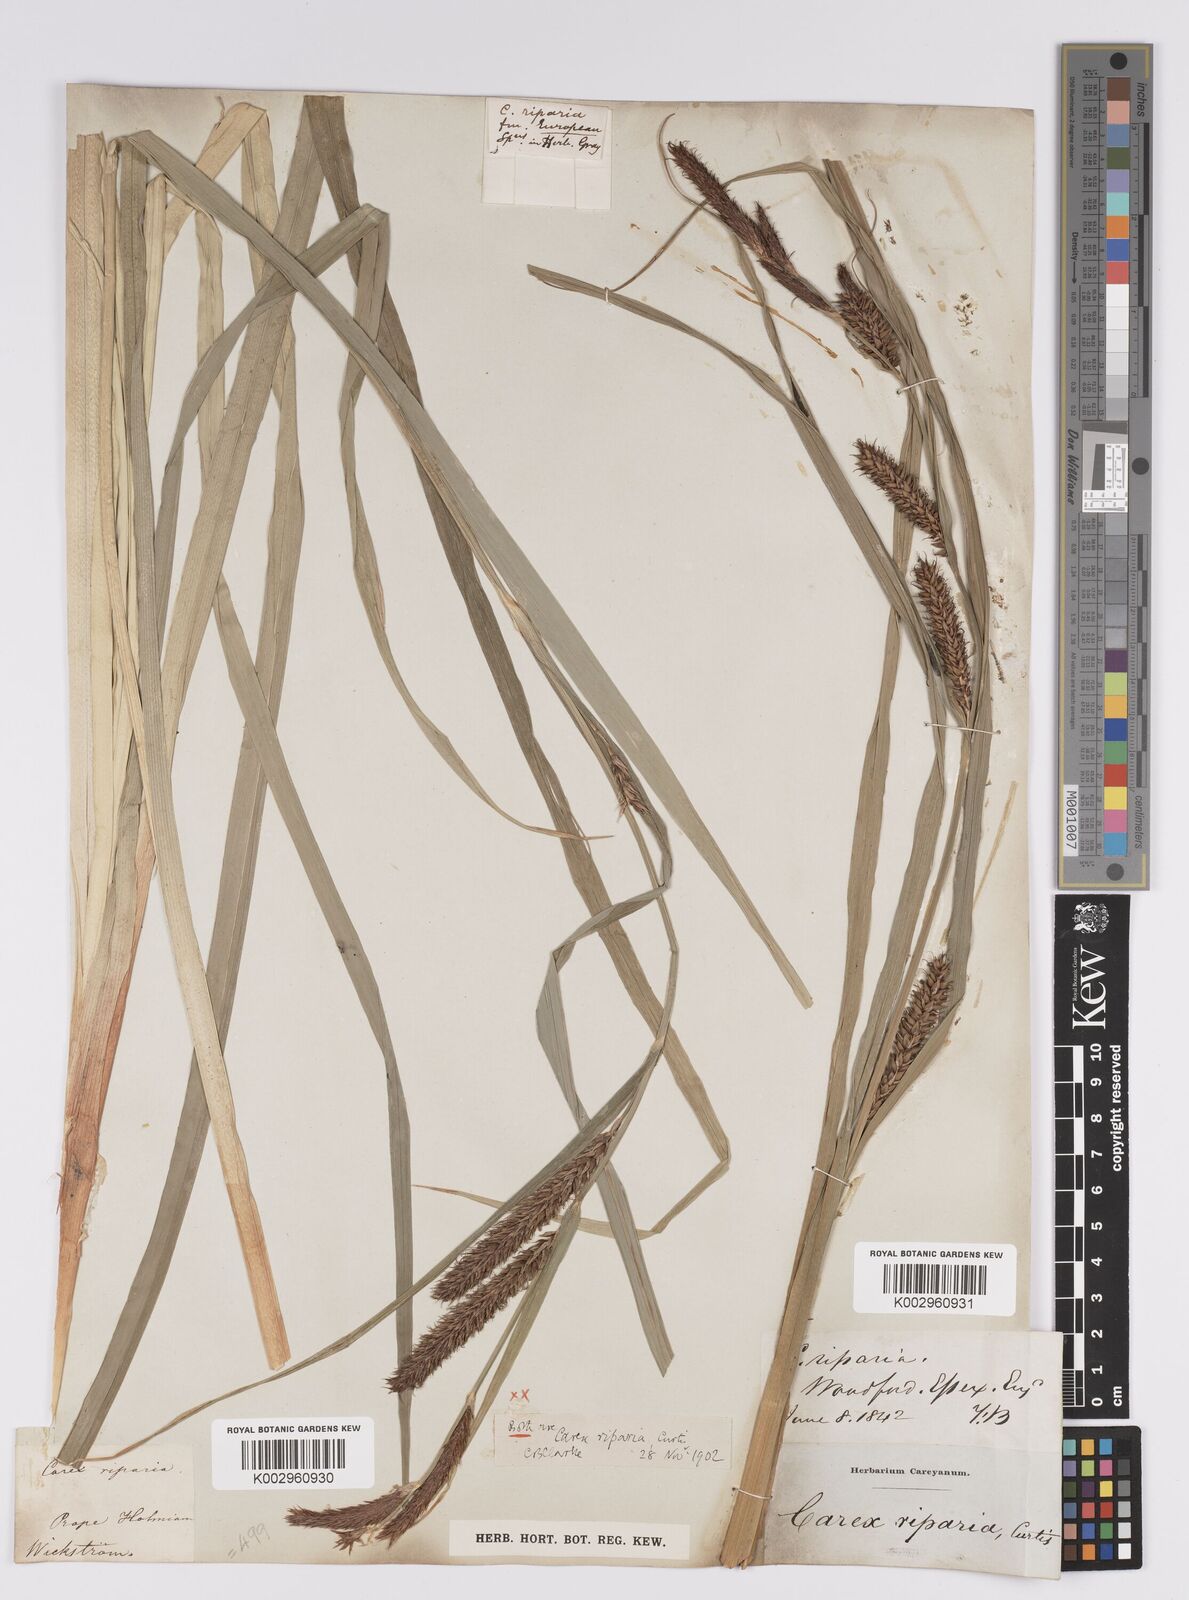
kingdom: Plantae
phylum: Tracheophyta
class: Liliopsida
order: Poales
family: Cyperaceae
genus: Carex
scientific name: Carex riparia
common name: Greater pond-sedge
